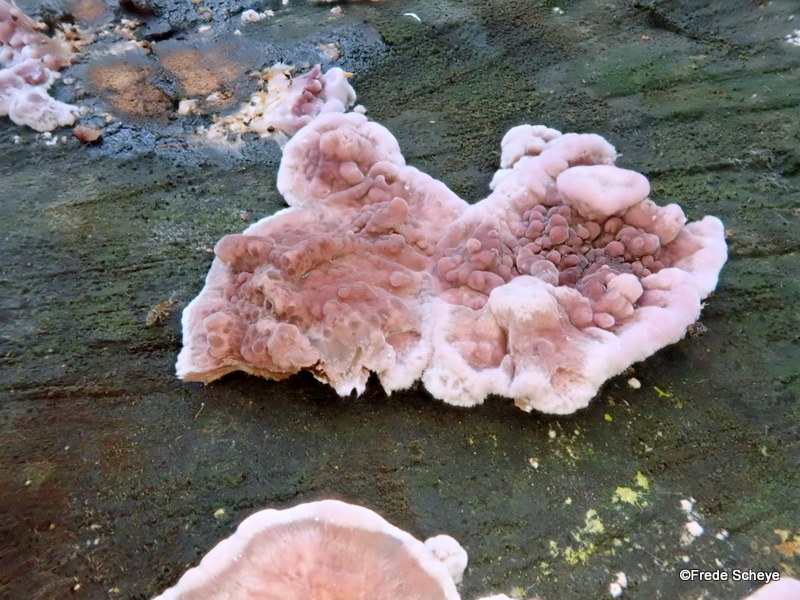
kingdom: Fungi
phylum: Basidiomycota
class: Agaricomycetes
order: Agaricales
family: Cyphellaceae
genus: Chondrostereum
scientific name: Chondrostereum purpureum
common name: purpurlædersvamp
